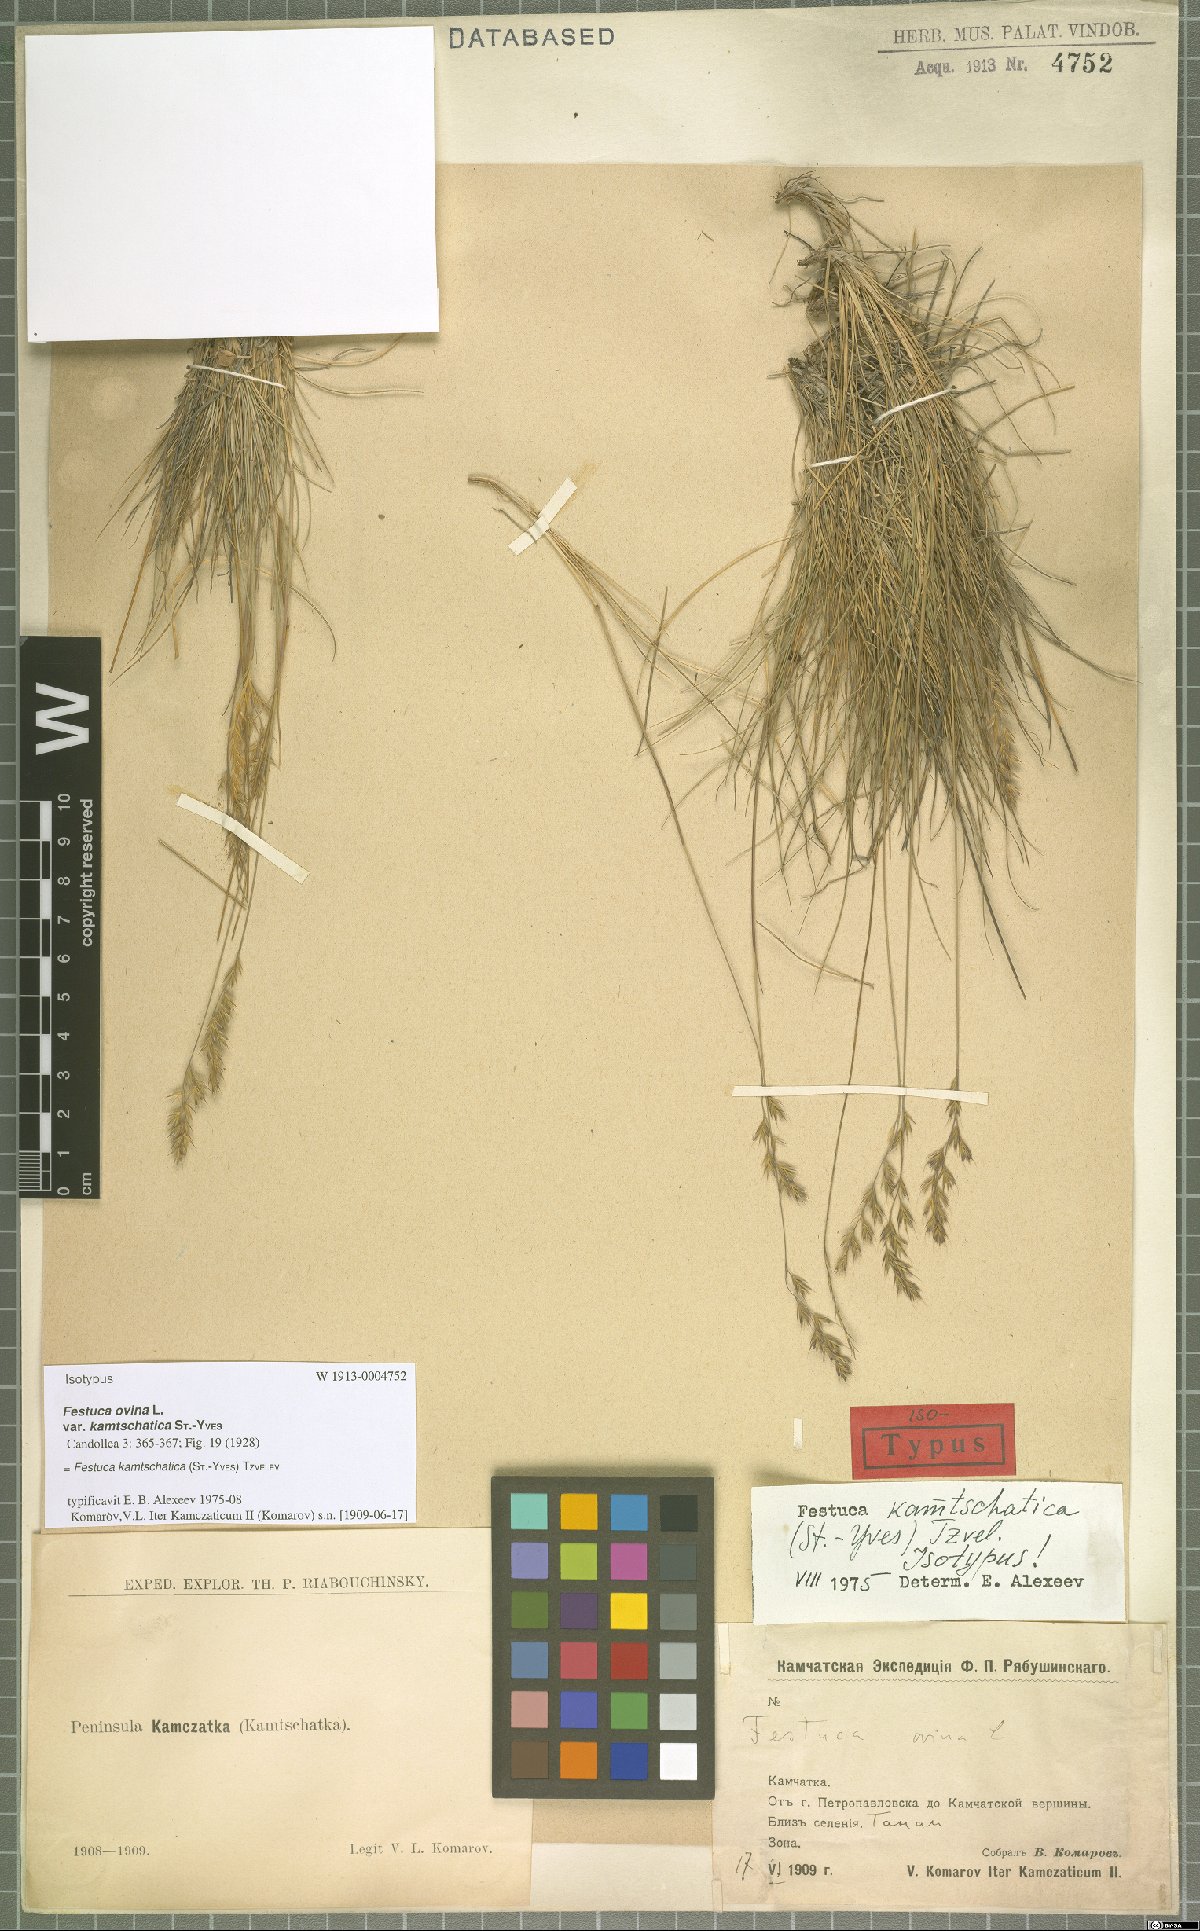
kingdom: Plantae
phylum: Tracheophyta
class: Liliopsida
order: Poales
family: Poaceae
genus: Festuca
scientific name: Festuca kamtschatica
